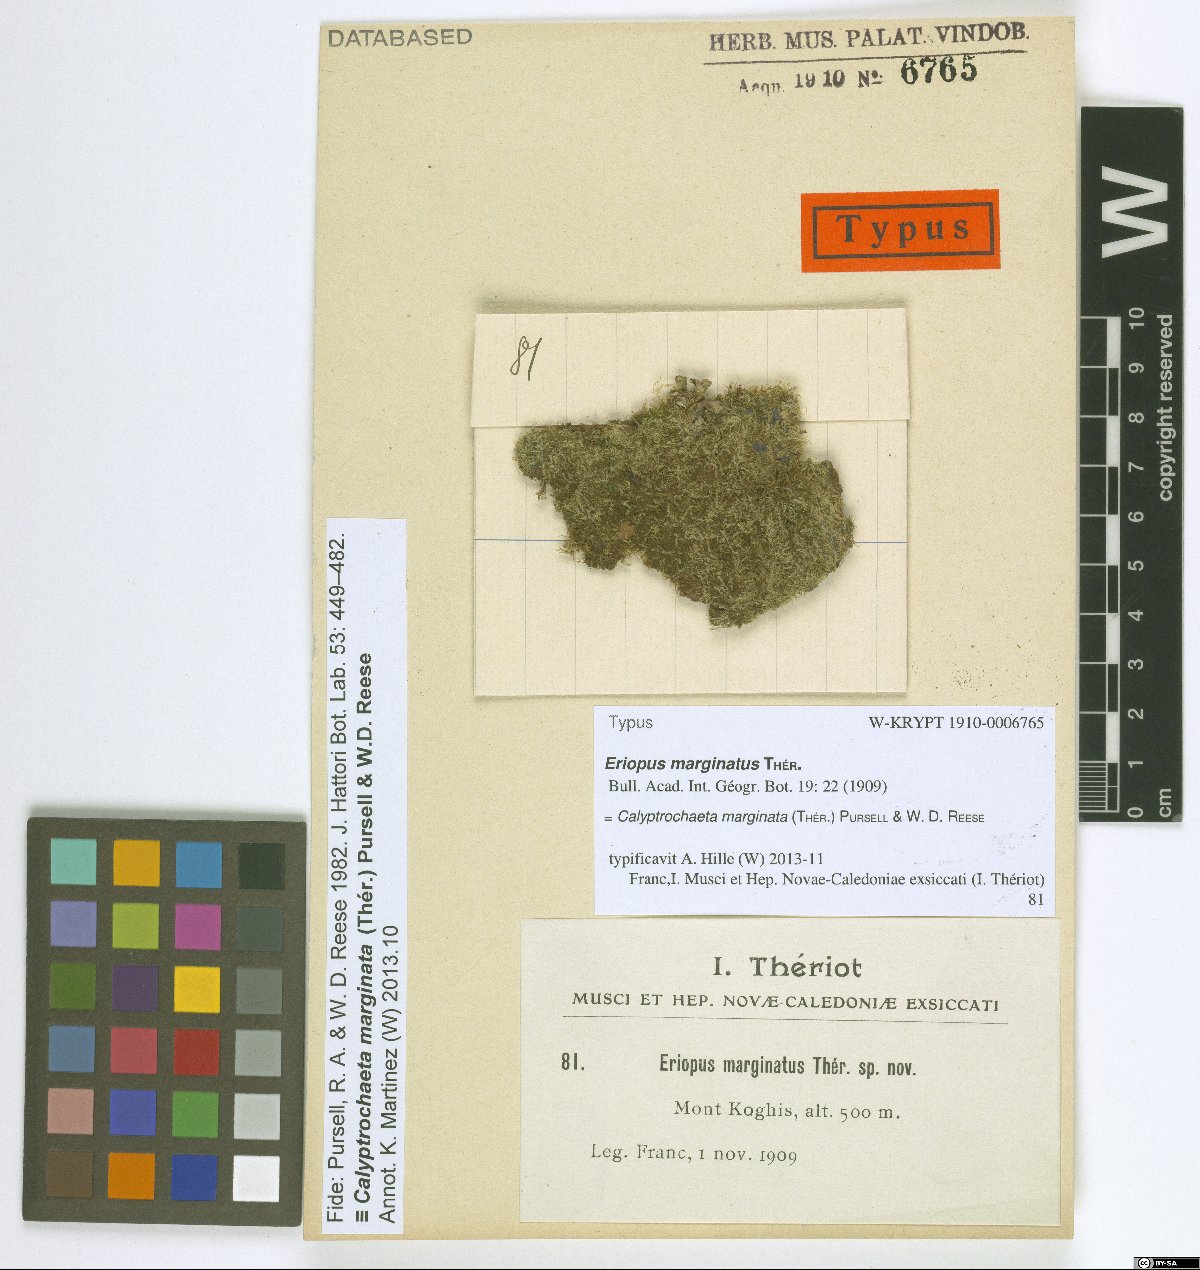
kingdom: Plantae
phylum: Bryophyta
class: Bryopsida
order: Hookeriales
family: Daltoniaceae
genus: Calyptrochaeta
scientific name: Calyptrochaeta marginata
